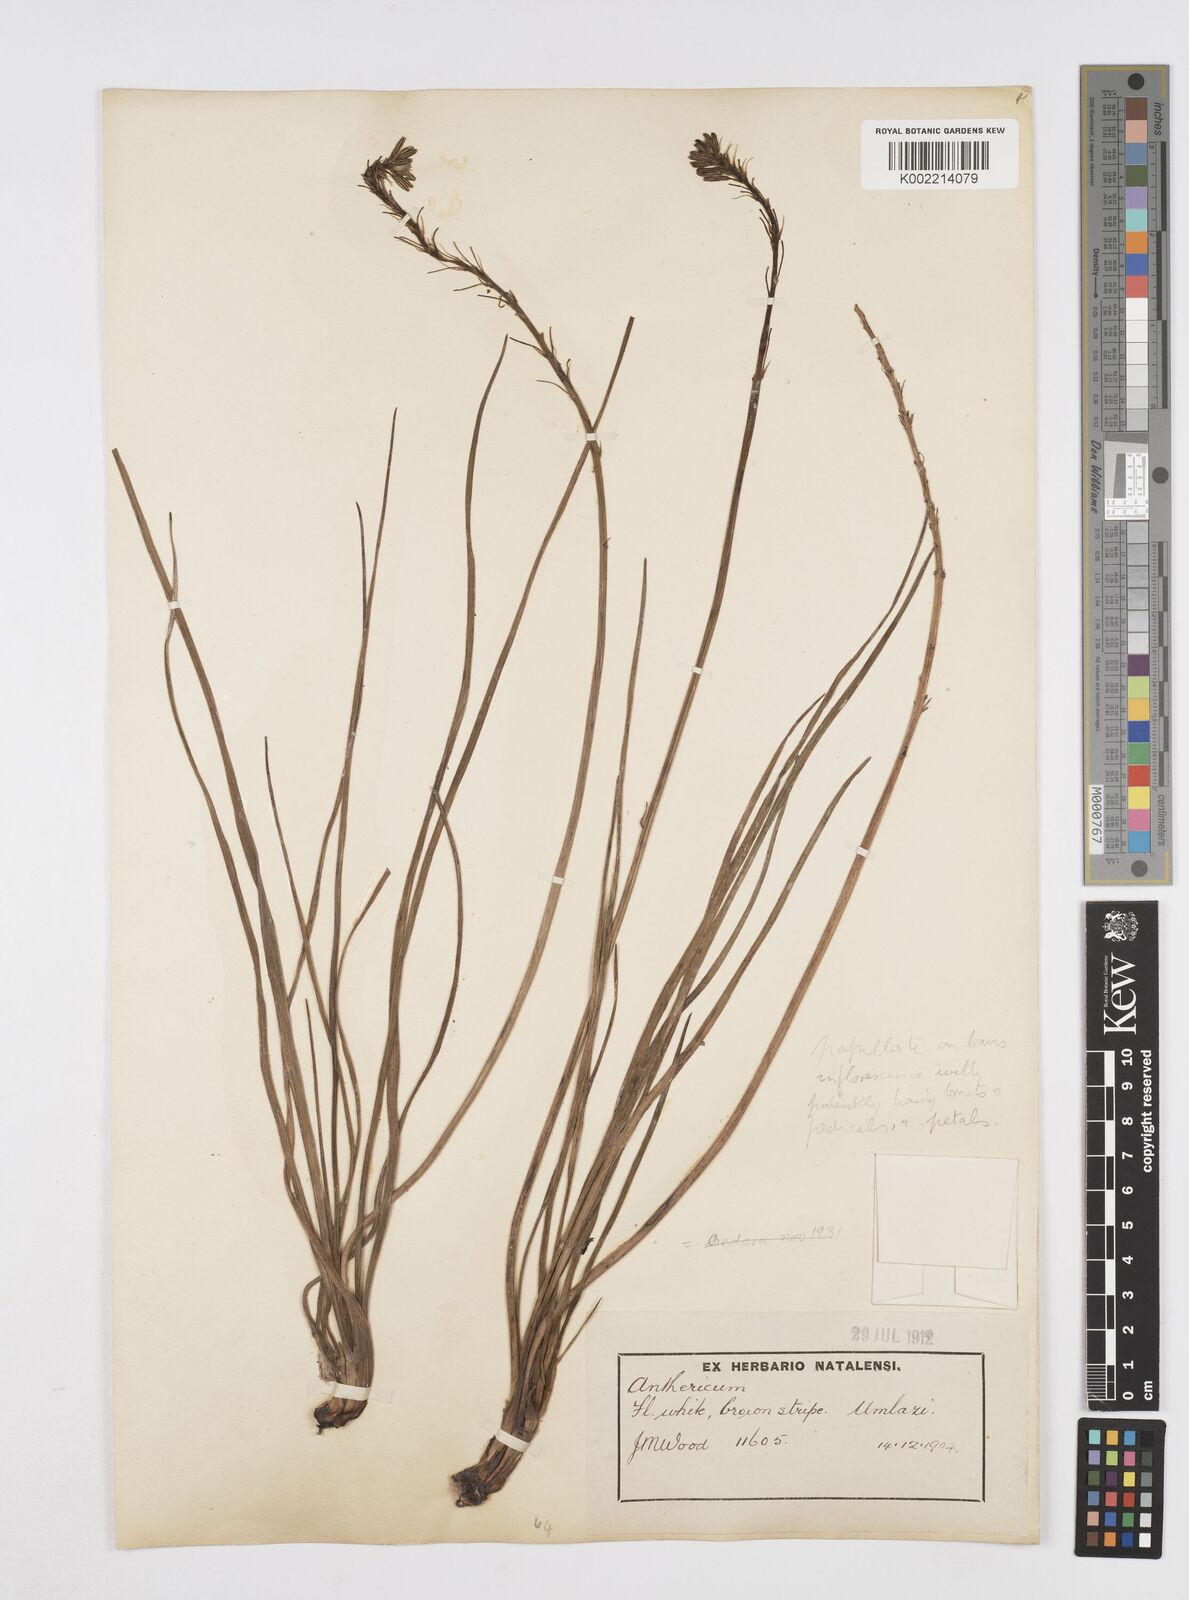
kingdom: Plantae
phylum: Tracheophyta
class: Liliopsida
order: Asparagales
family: Asphodelaceae
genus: Trachyandra
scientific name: Trachyandra
